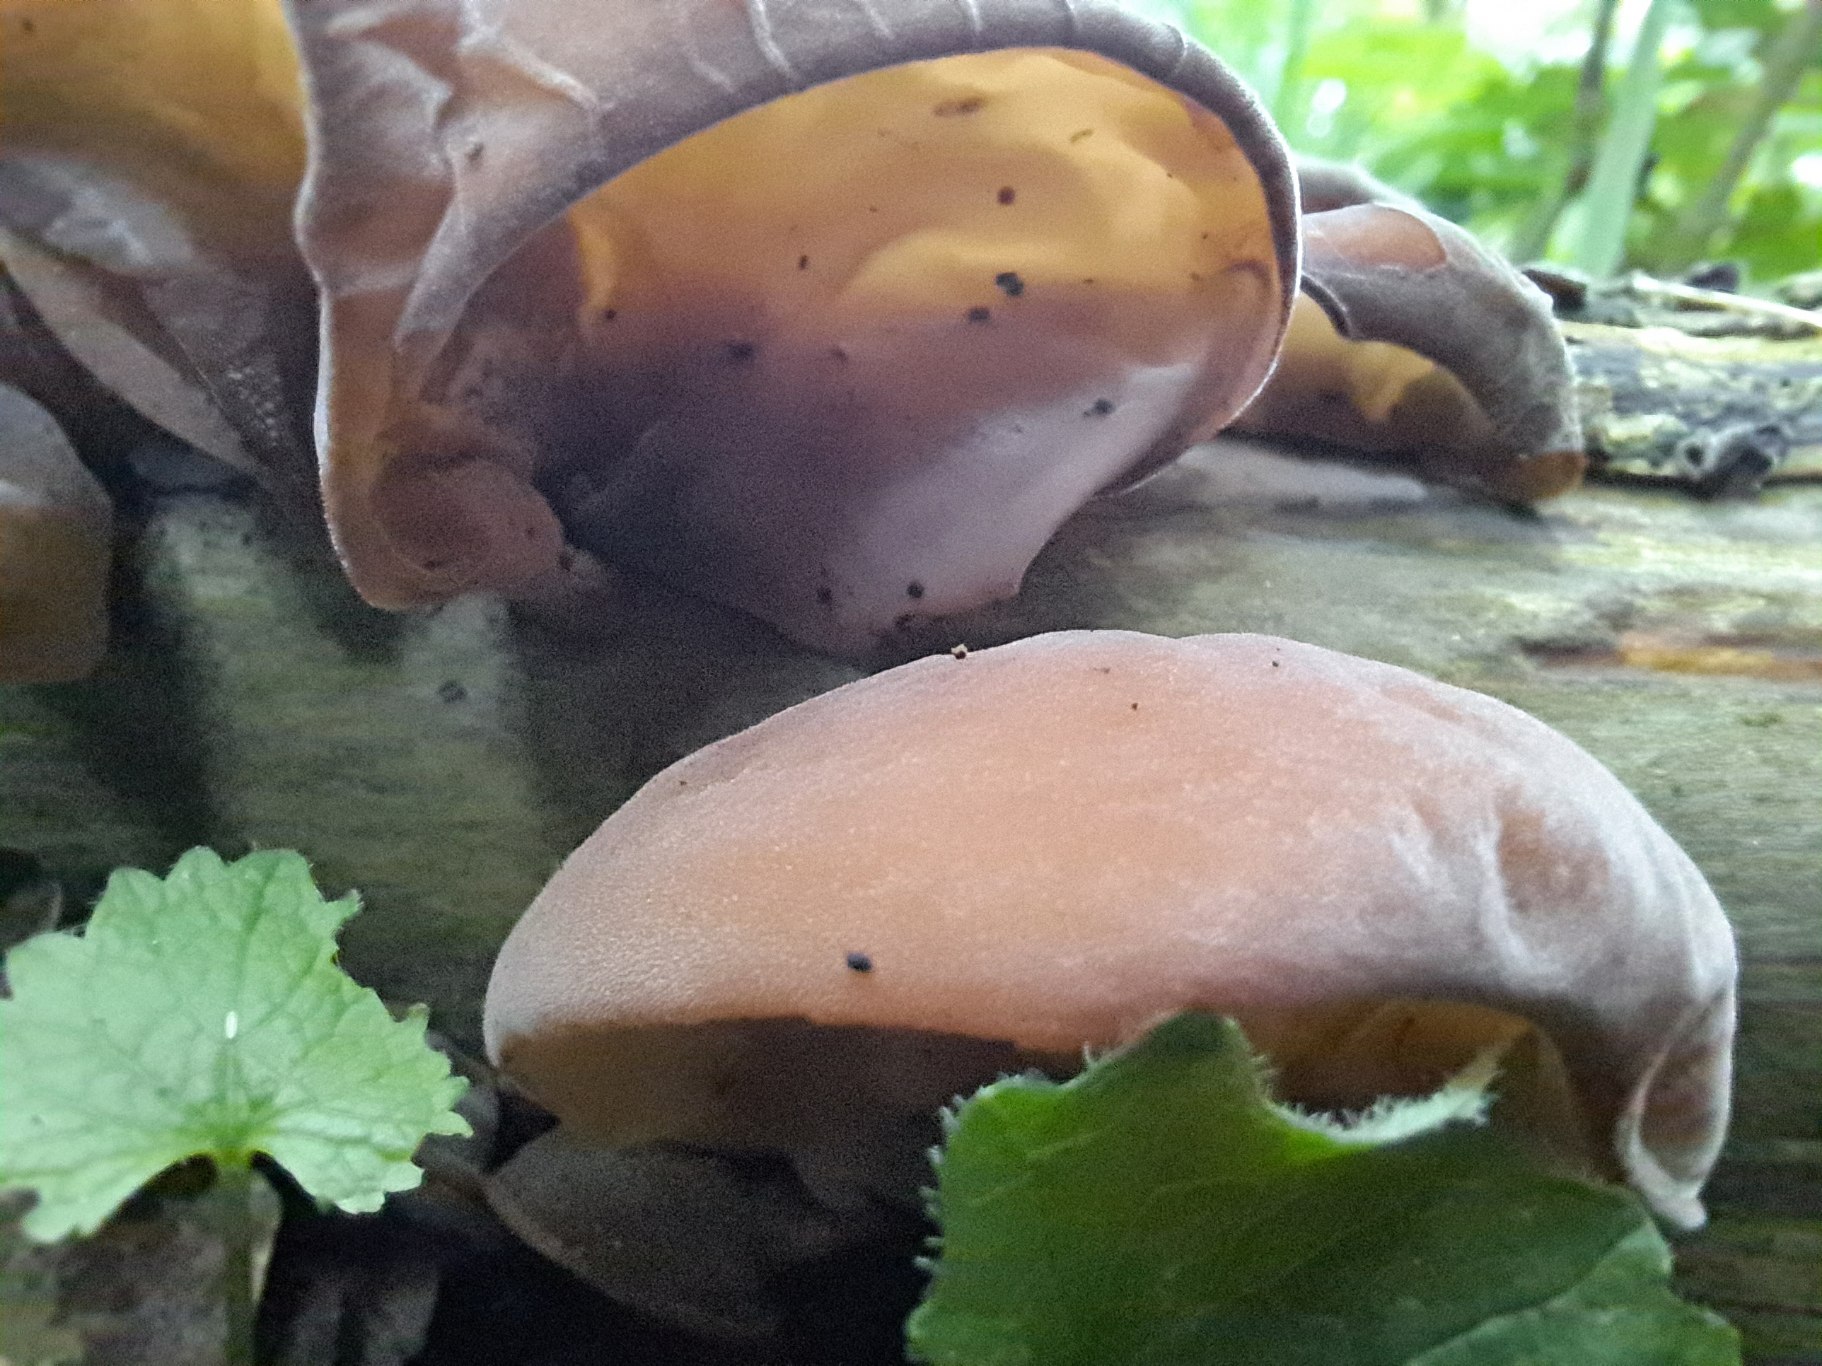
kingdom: Fungi
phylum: Basidiomycota
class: Agaricomycetes
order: Auriculariales
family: Auriculariaceae
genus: Auricularia
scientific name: Auricularia auricula-judae
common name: Almindelig judasøre
